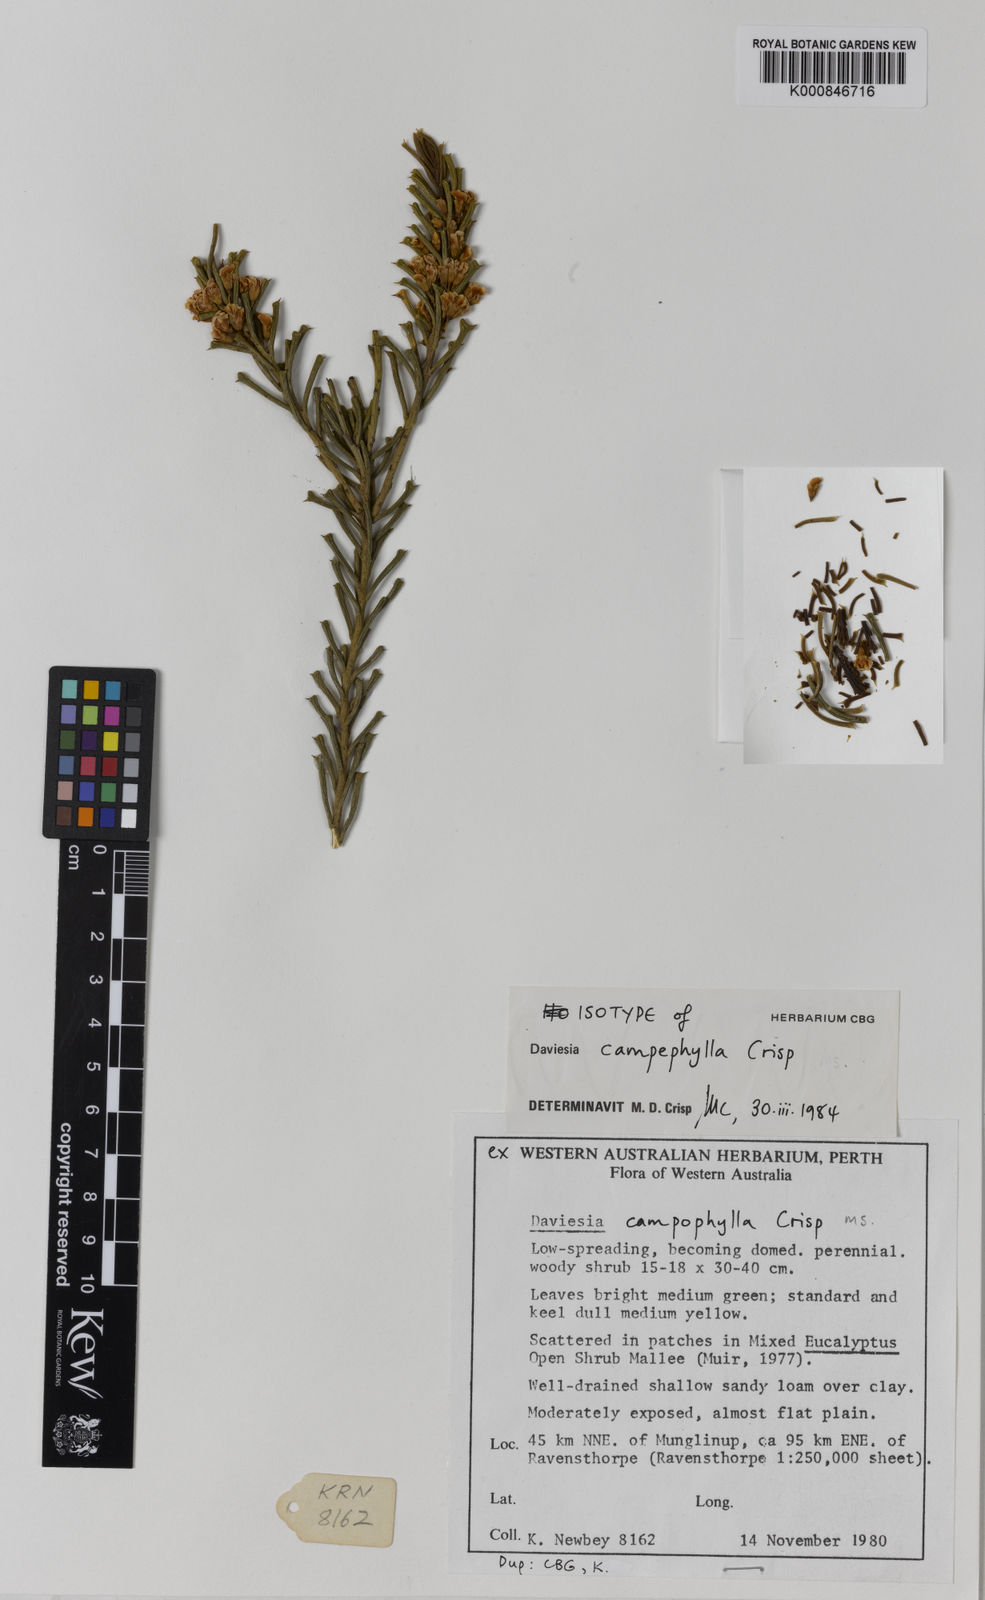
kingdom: Plantae
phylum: Tracheophyta
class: Magnoliopsida
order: Fabales
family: Fabaceae
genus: Daviesia
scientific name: Daviesia campephylla
